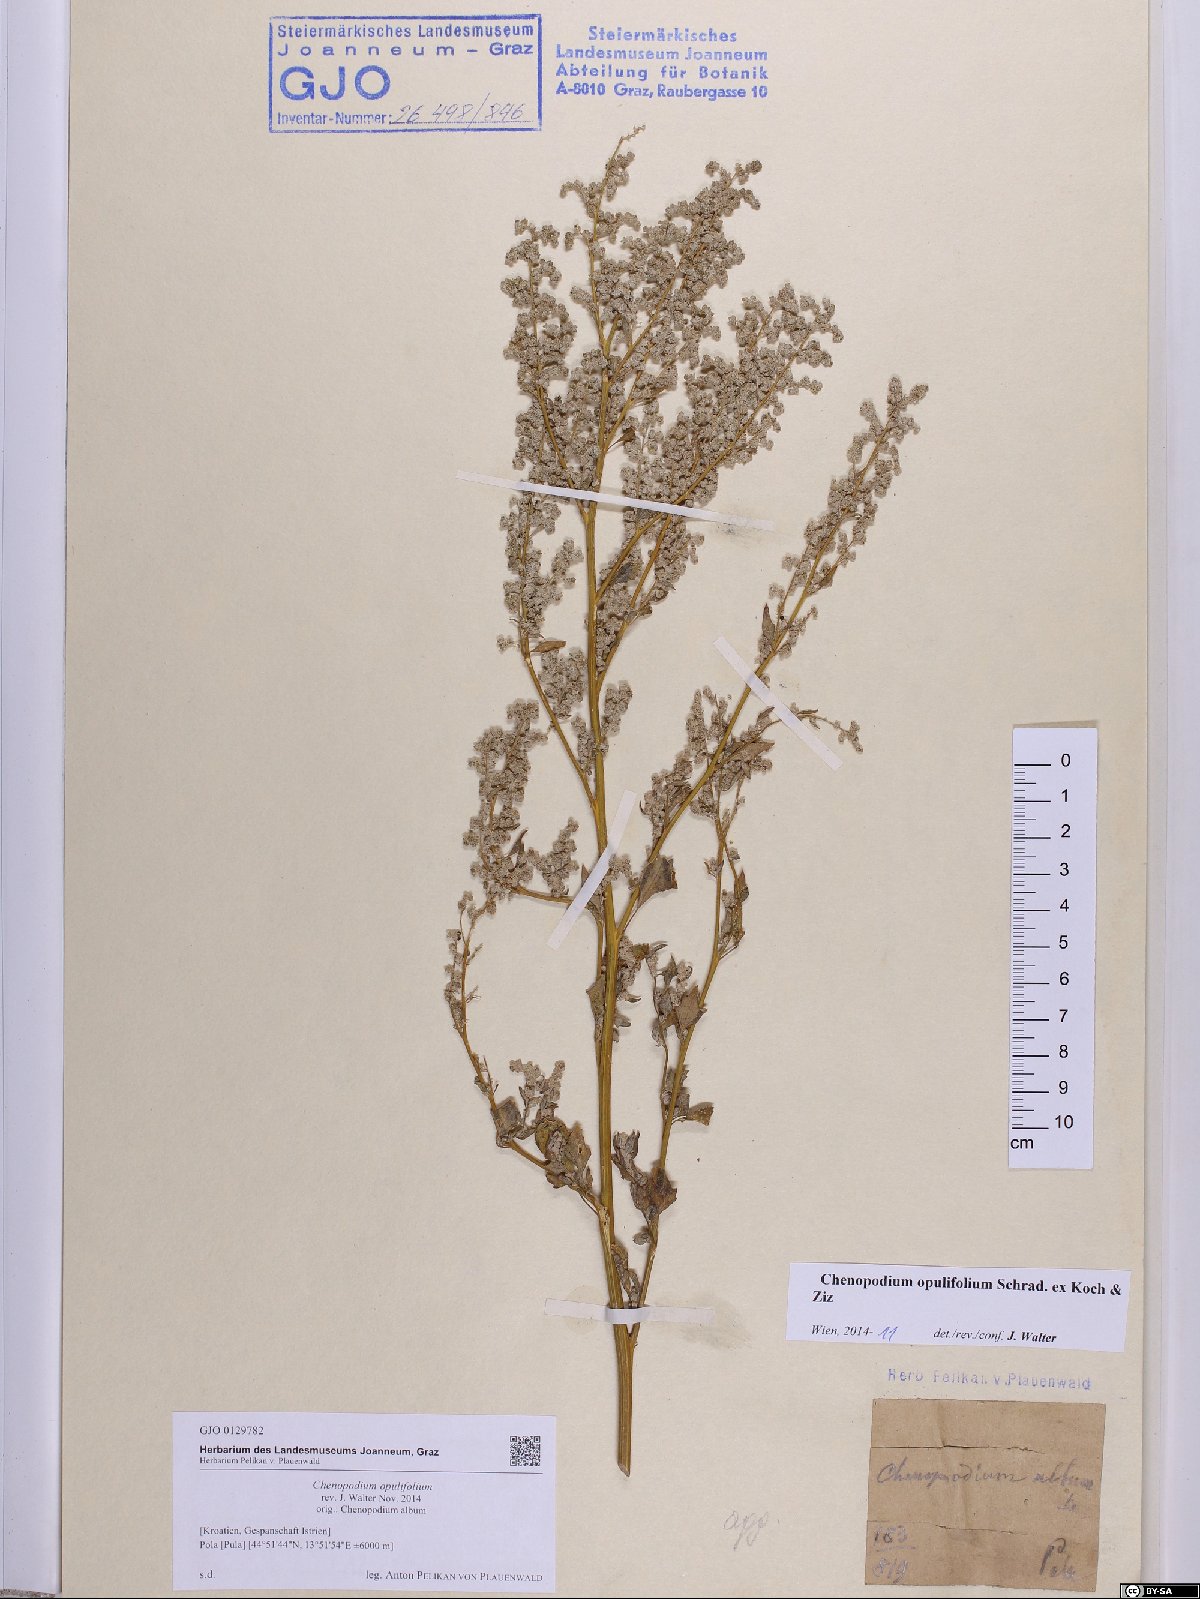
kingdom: Plantae
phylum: Tracheophyta
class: Magnoliopsida
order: Caryophyllales
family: Amaranthaceae
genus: Chenopodium
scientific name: Chenopodium opulifolium
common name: Grey goosefoot
